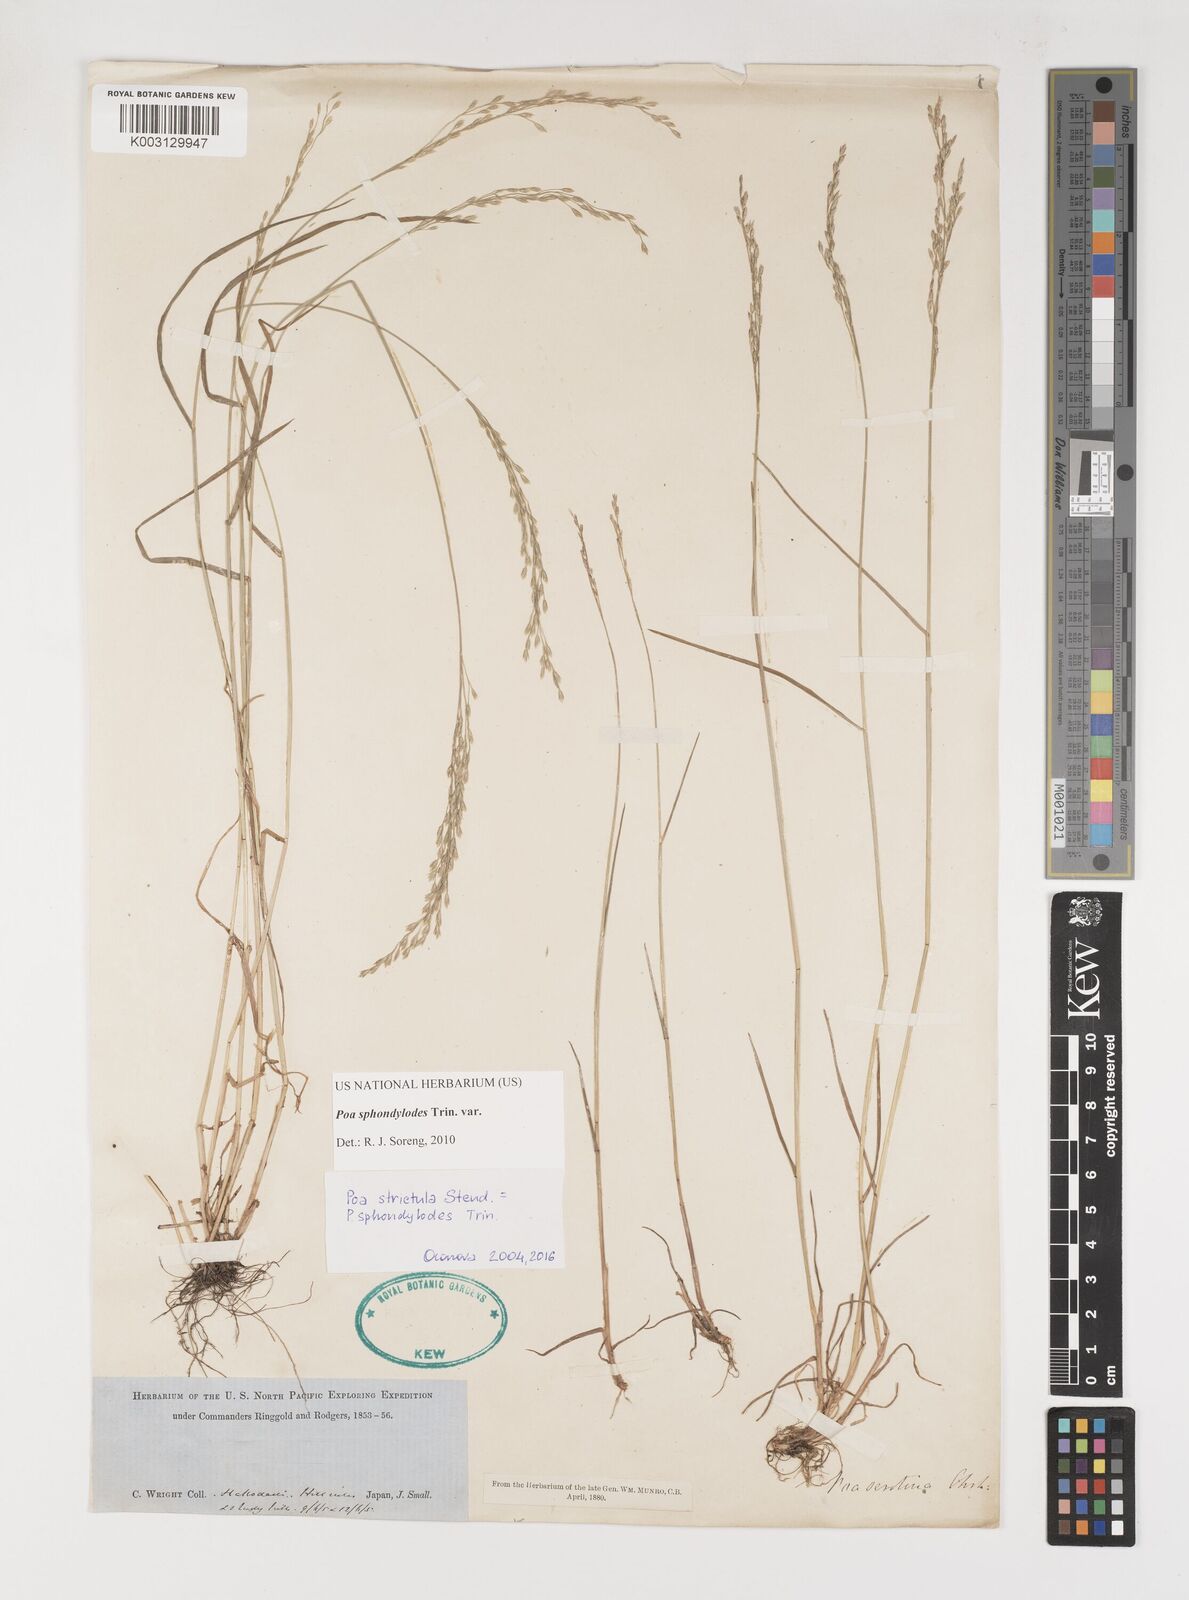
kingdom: Plantae
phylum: Tracheophyta
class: Liliopsida
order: Poales
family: Poaceae
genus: Poa
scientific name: Poa sphondylodes
